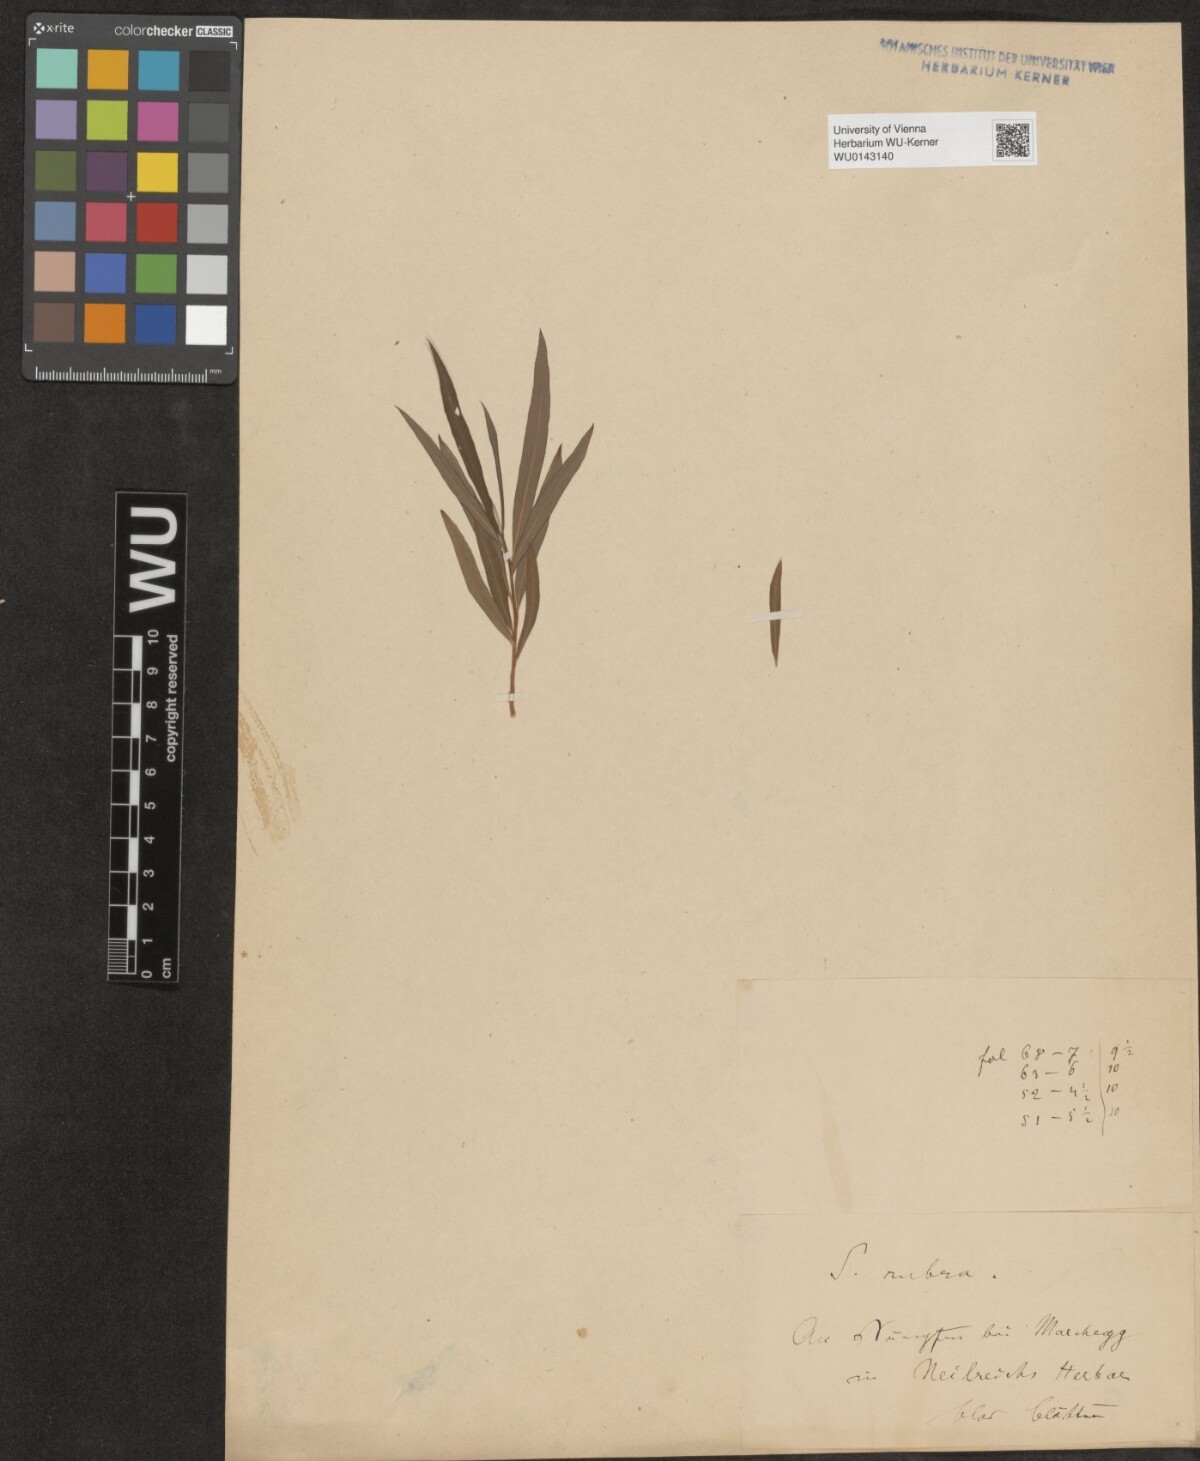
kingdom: Plantae
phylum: Tracheophyta
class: Magnoliopsida
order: Malpighiales
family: Salicaceae
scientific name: Salicaceae
